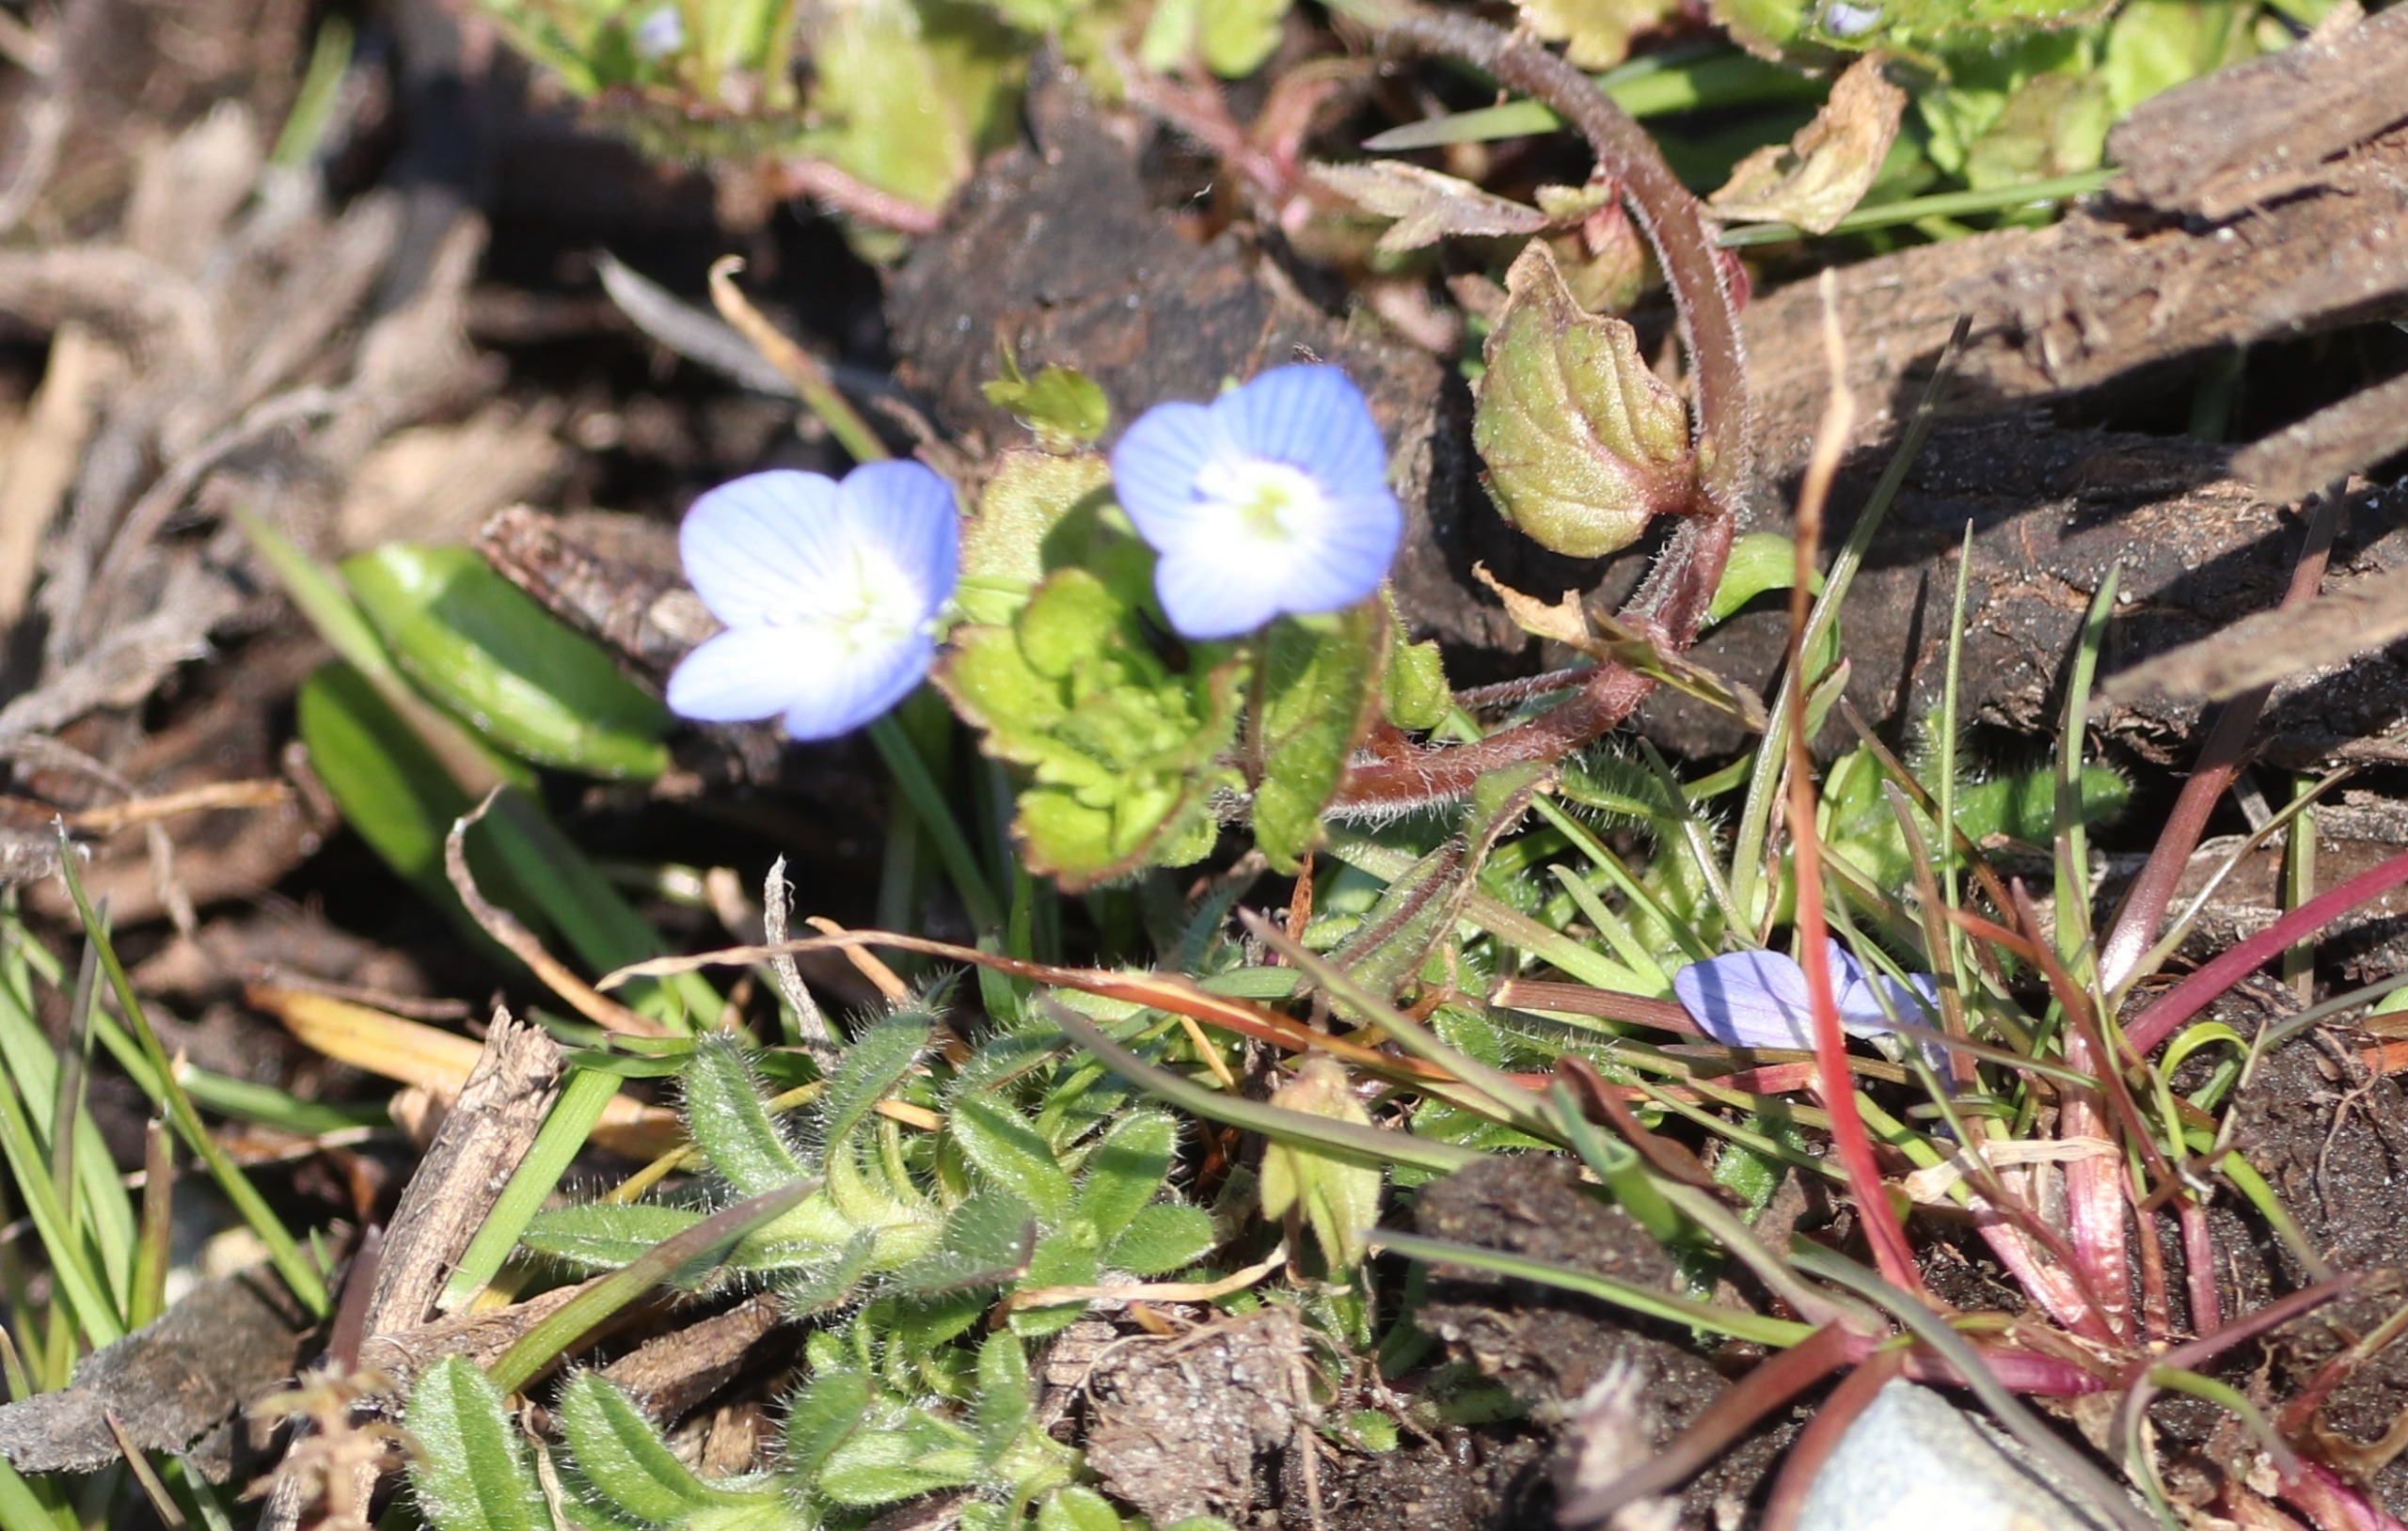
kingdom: Plantae
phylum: Tracheophyta
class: Magnoliopsida
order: Lamiales
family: Plantaginaceae
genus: Veronica
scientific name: Veronica persica
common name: Storkronet ærenpris
